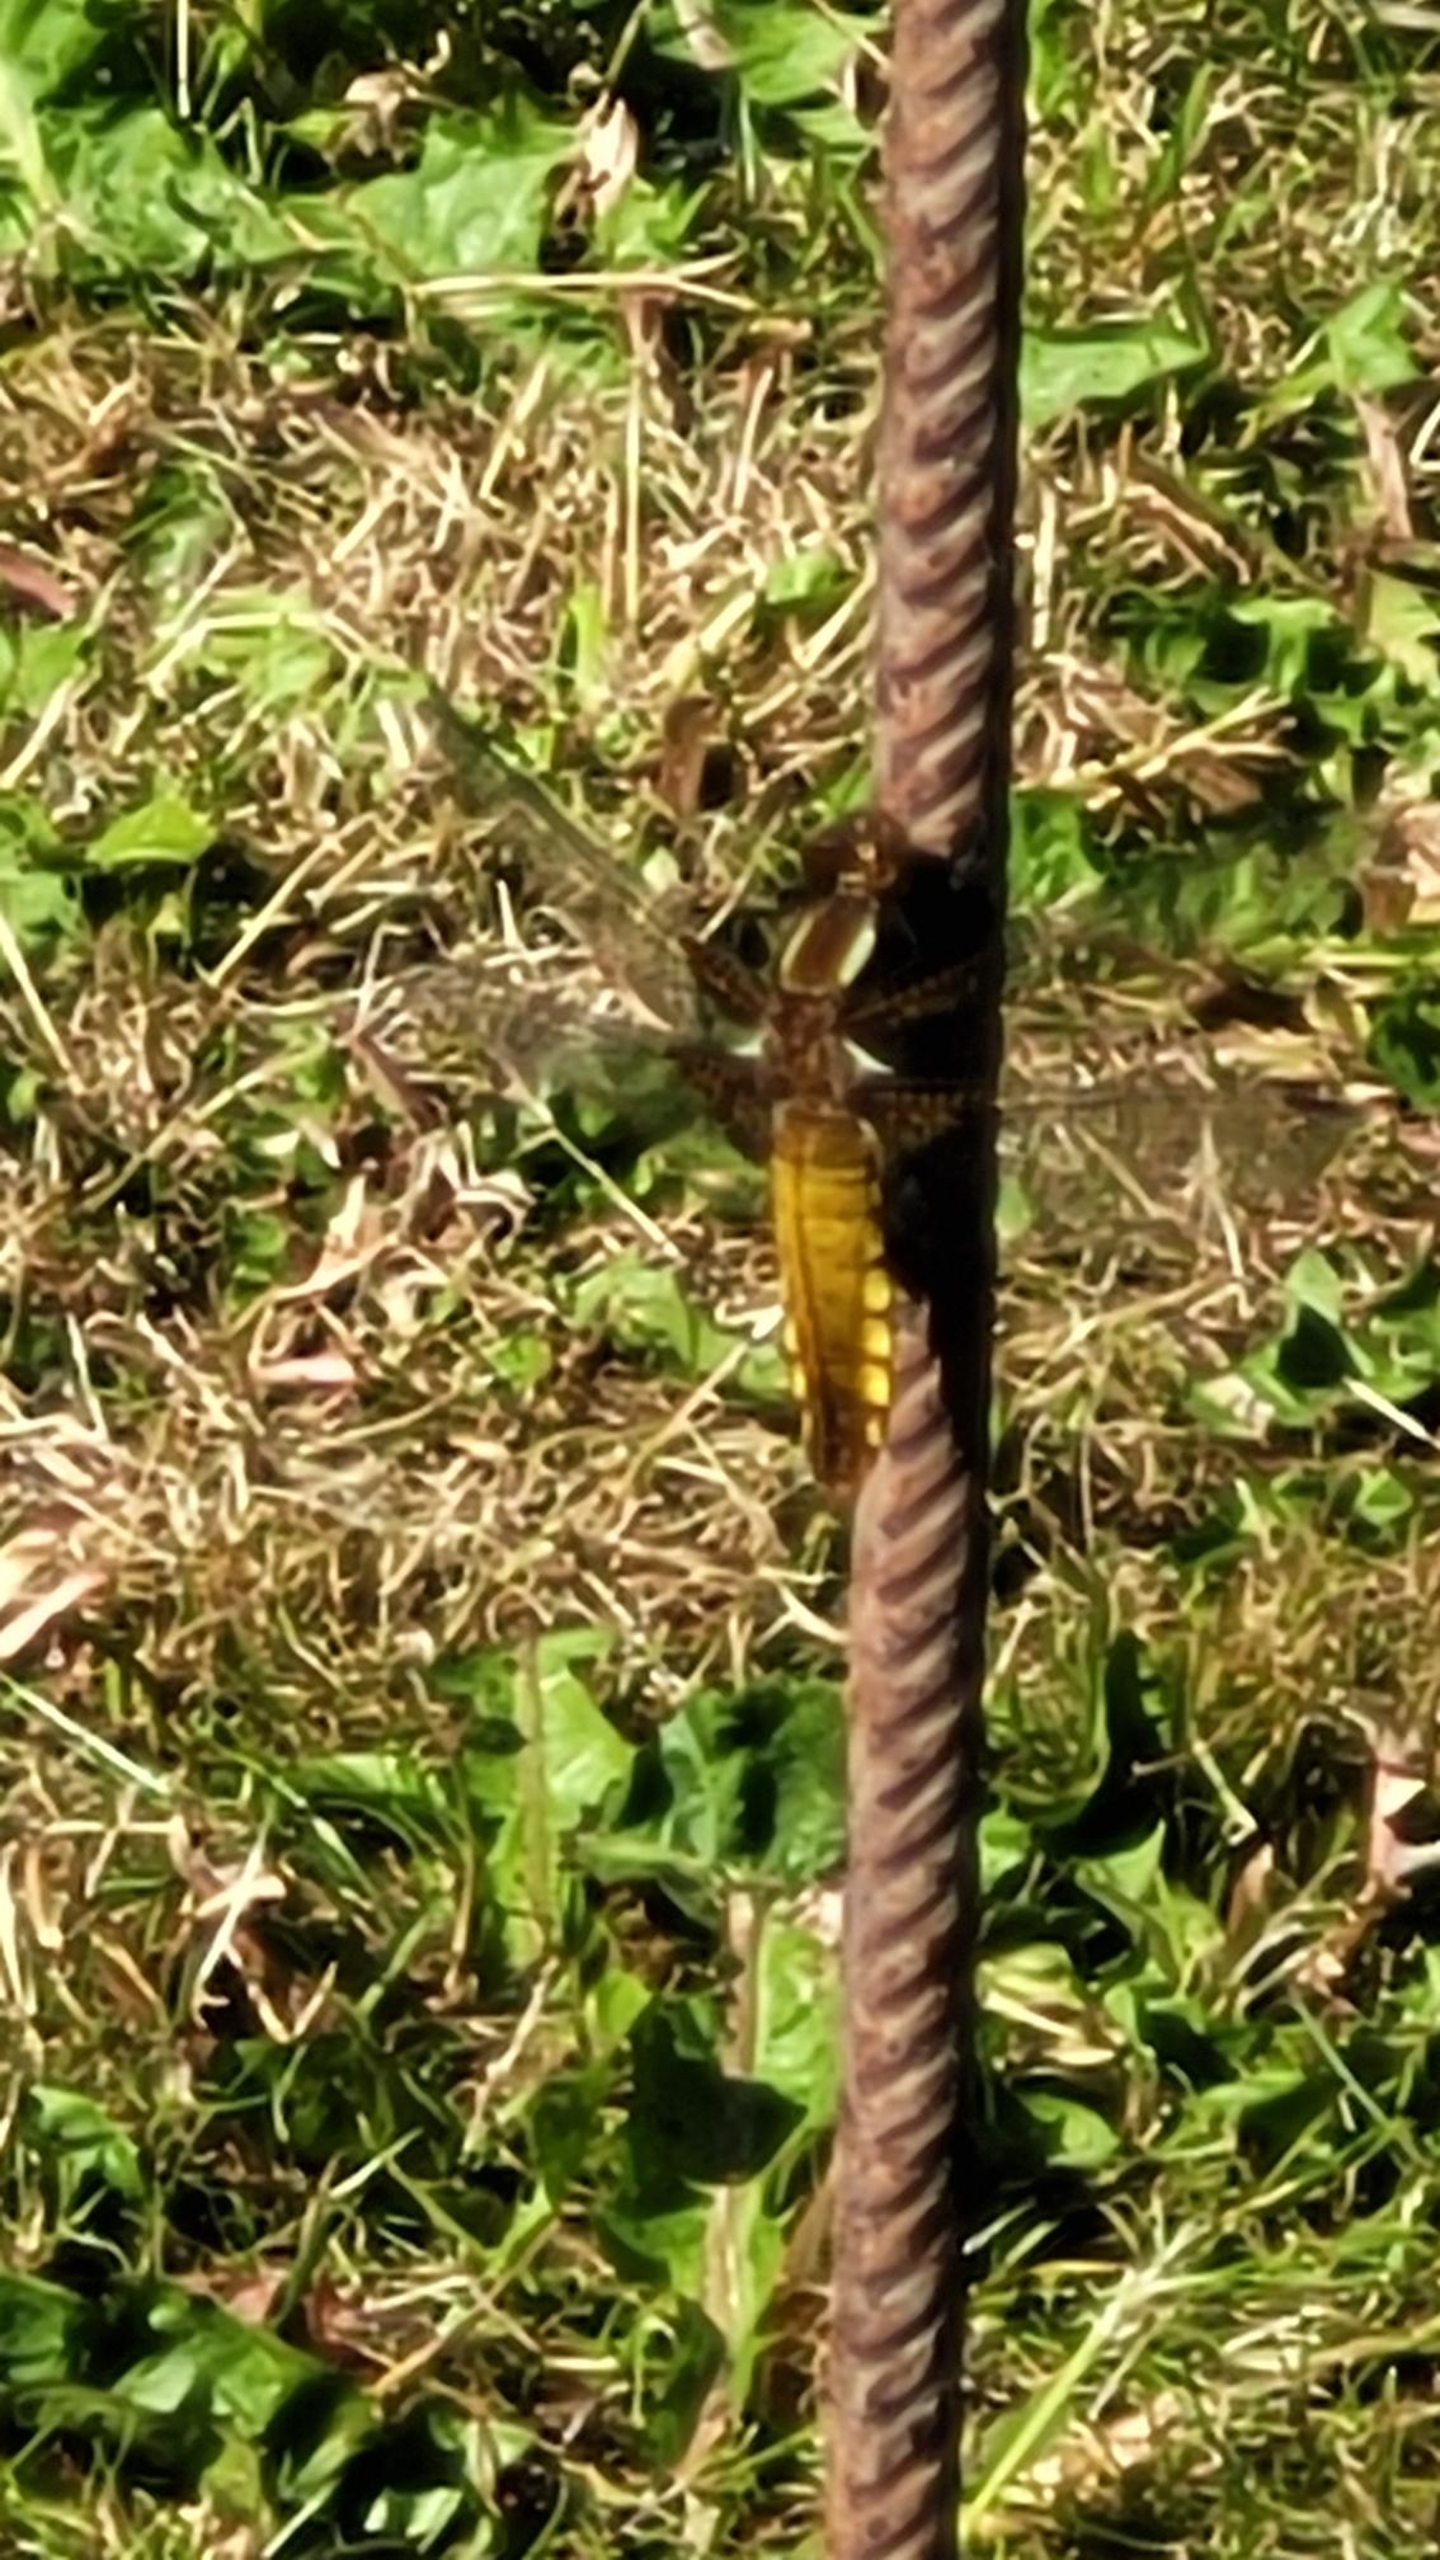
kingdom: Animalia
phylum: Arthropoda
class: Insecta
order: Odonata
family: Libellulidae
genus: Libellula
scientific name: Libellula depressa
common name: Blå libel
